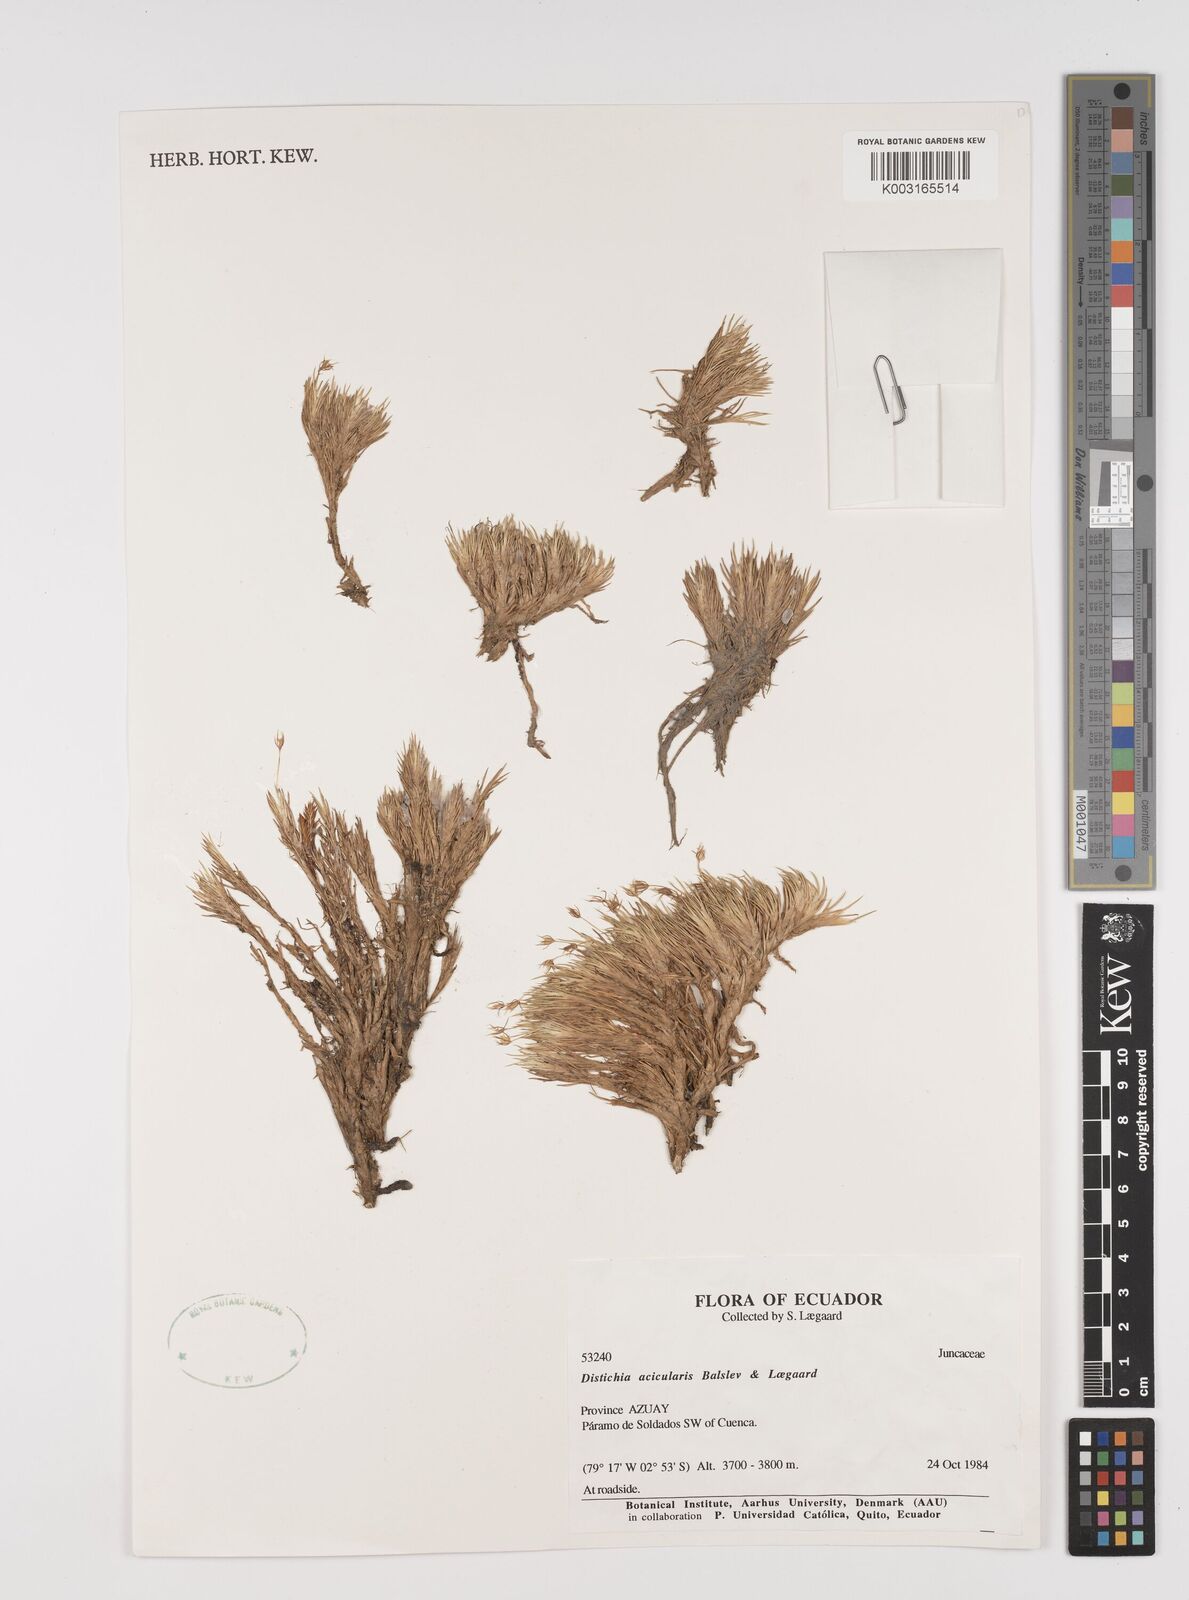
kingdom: Plantae
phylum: Tracheophyta
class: Liliopsida
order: Poales
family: Juncaceae
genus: Distichia
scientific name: Distichia acicularis
